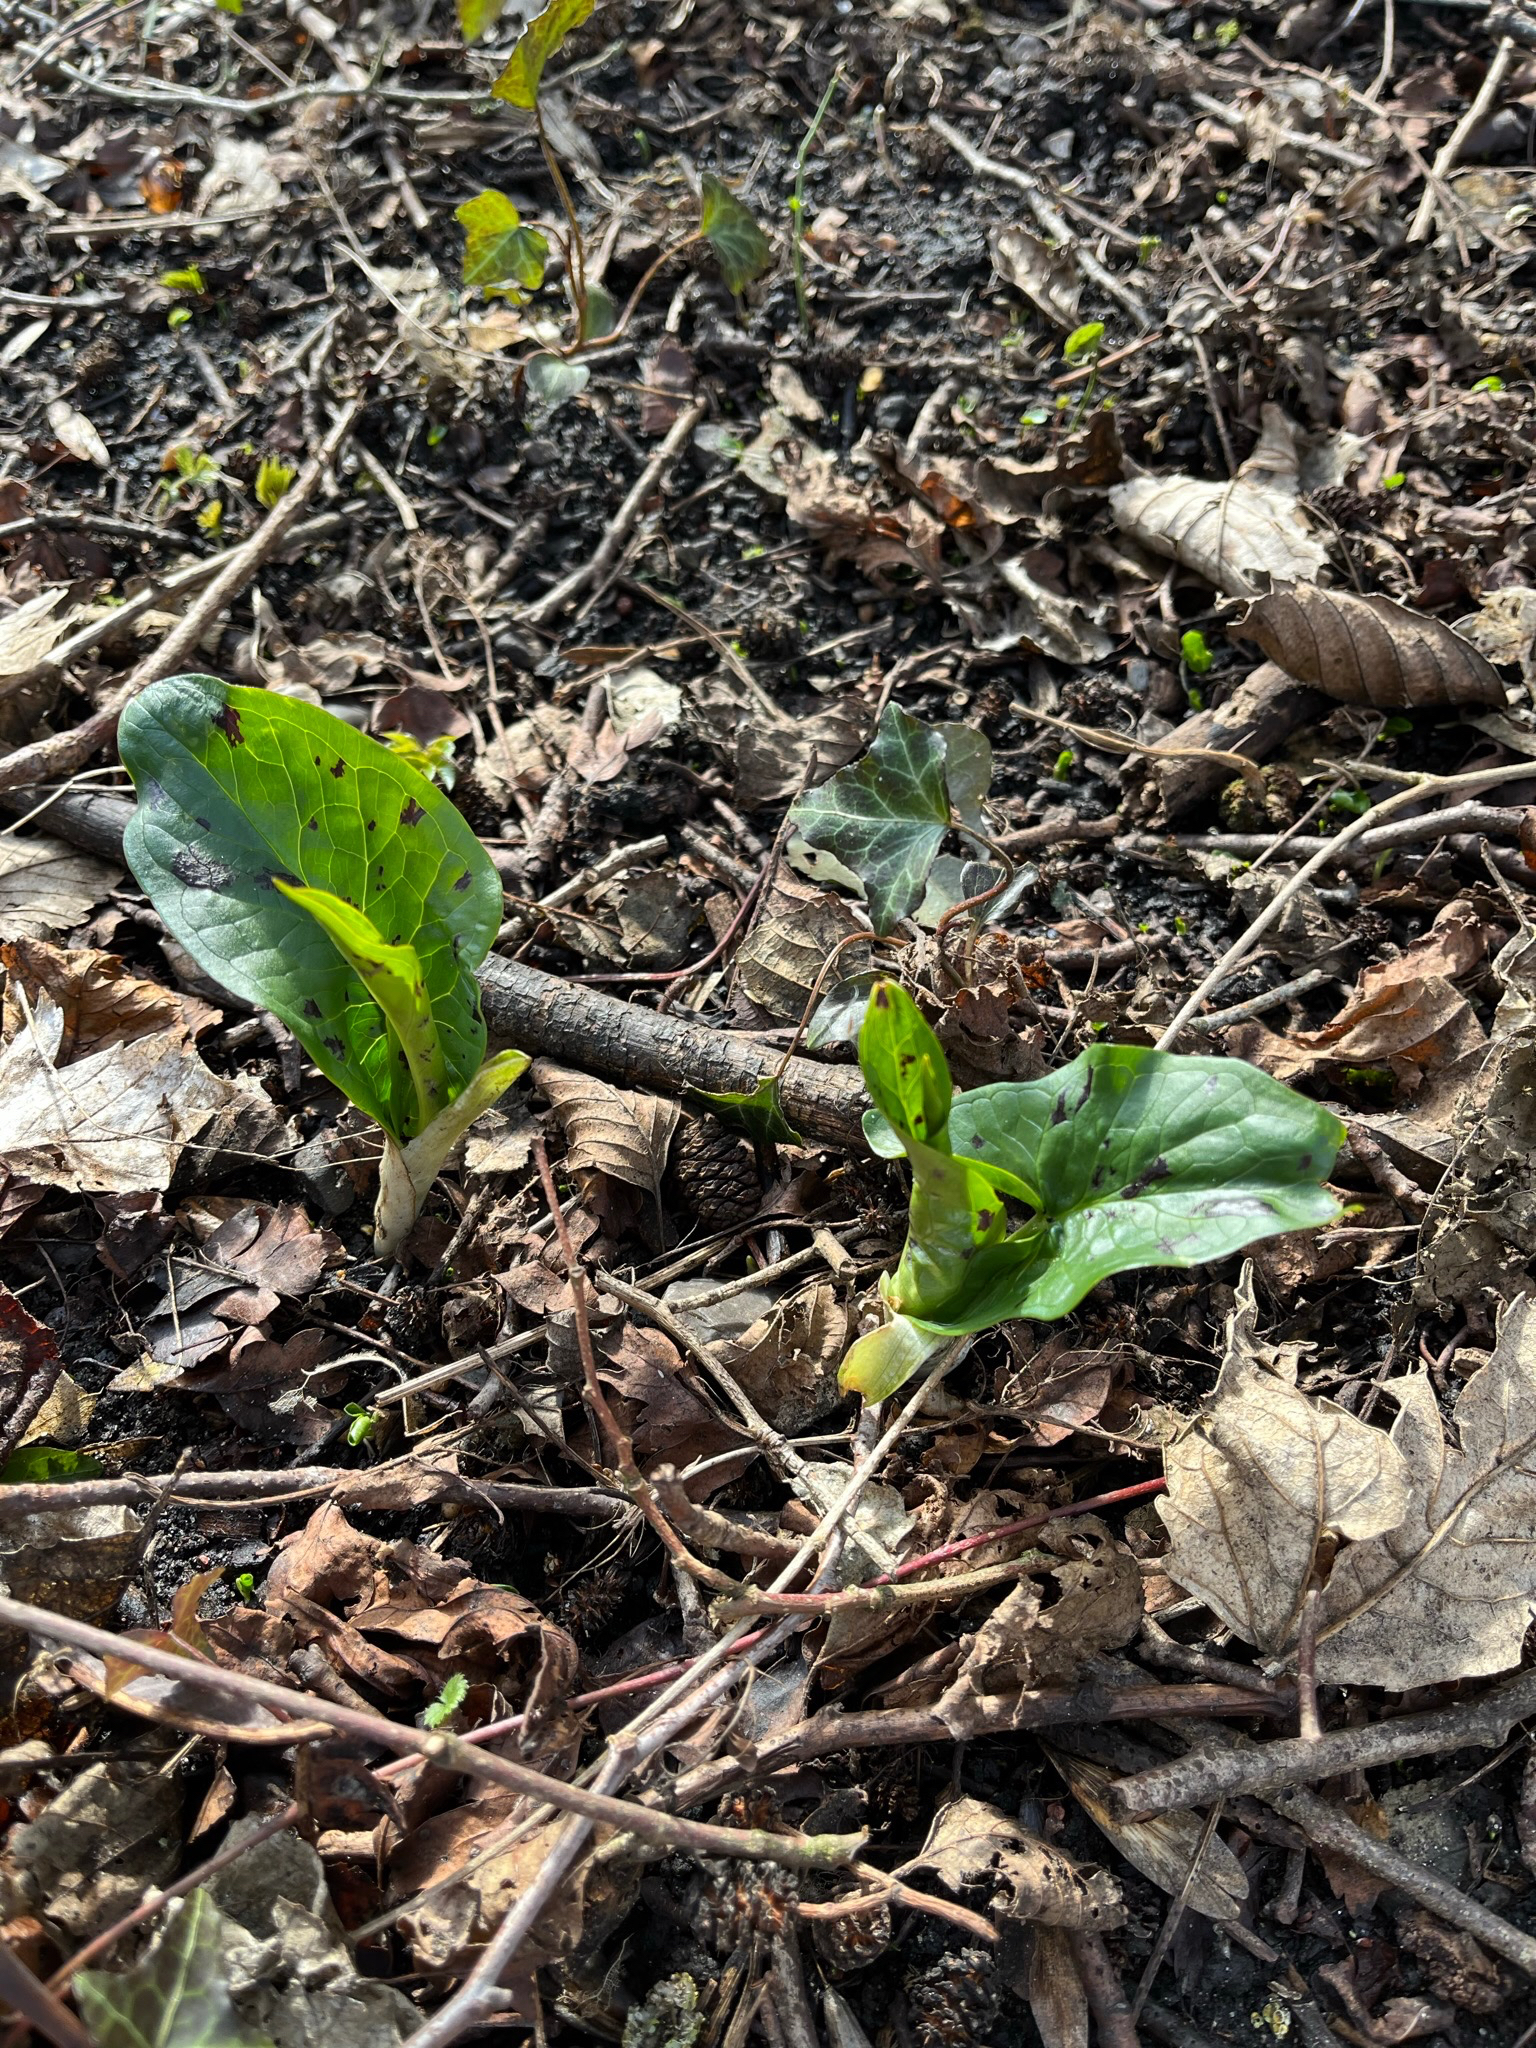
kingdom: Plantae
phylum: Tracheophyta
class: Liliopsida
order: Alismatales
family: Araceae
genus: Arum
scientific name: Arum maculatum
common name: Plettet arum
